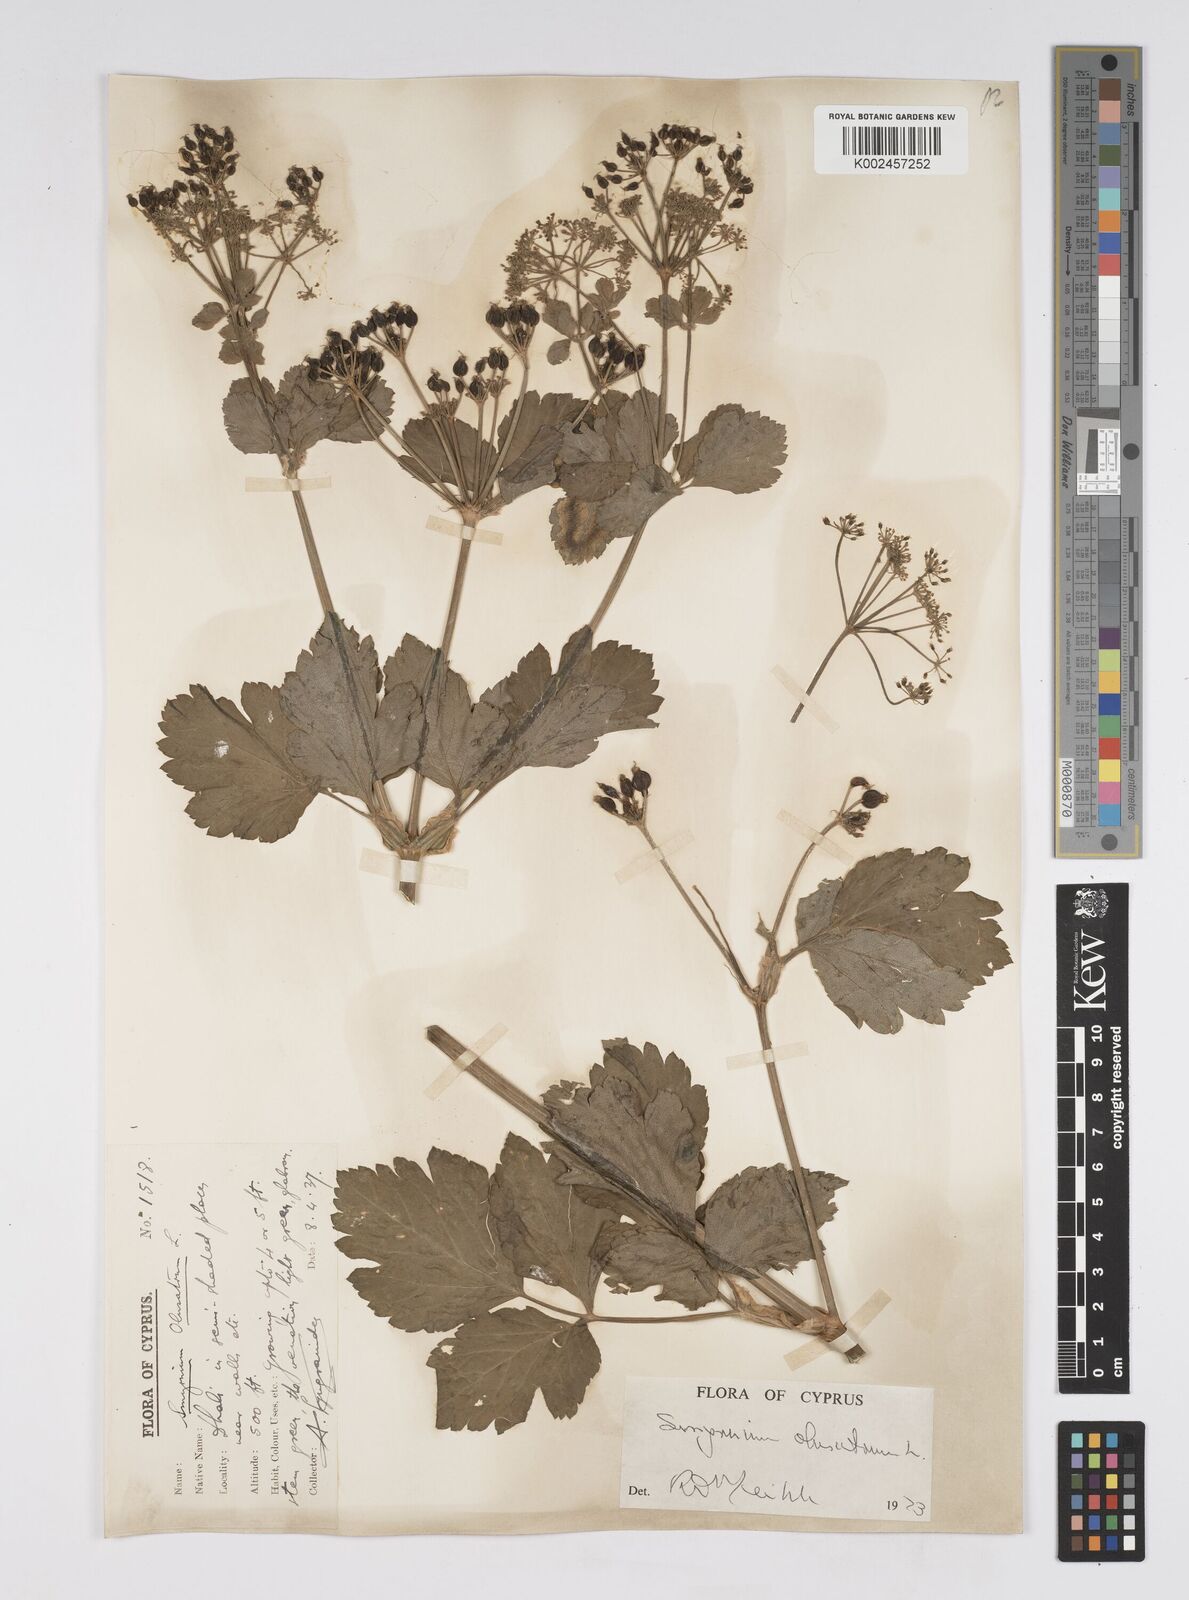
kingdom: Plantae
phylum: Tracheophyta
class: Magnoliopsida
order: Apiales
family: Apiaceae
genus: Smyrnium
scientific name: Smyrnium olusatrum
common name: Alexanders
